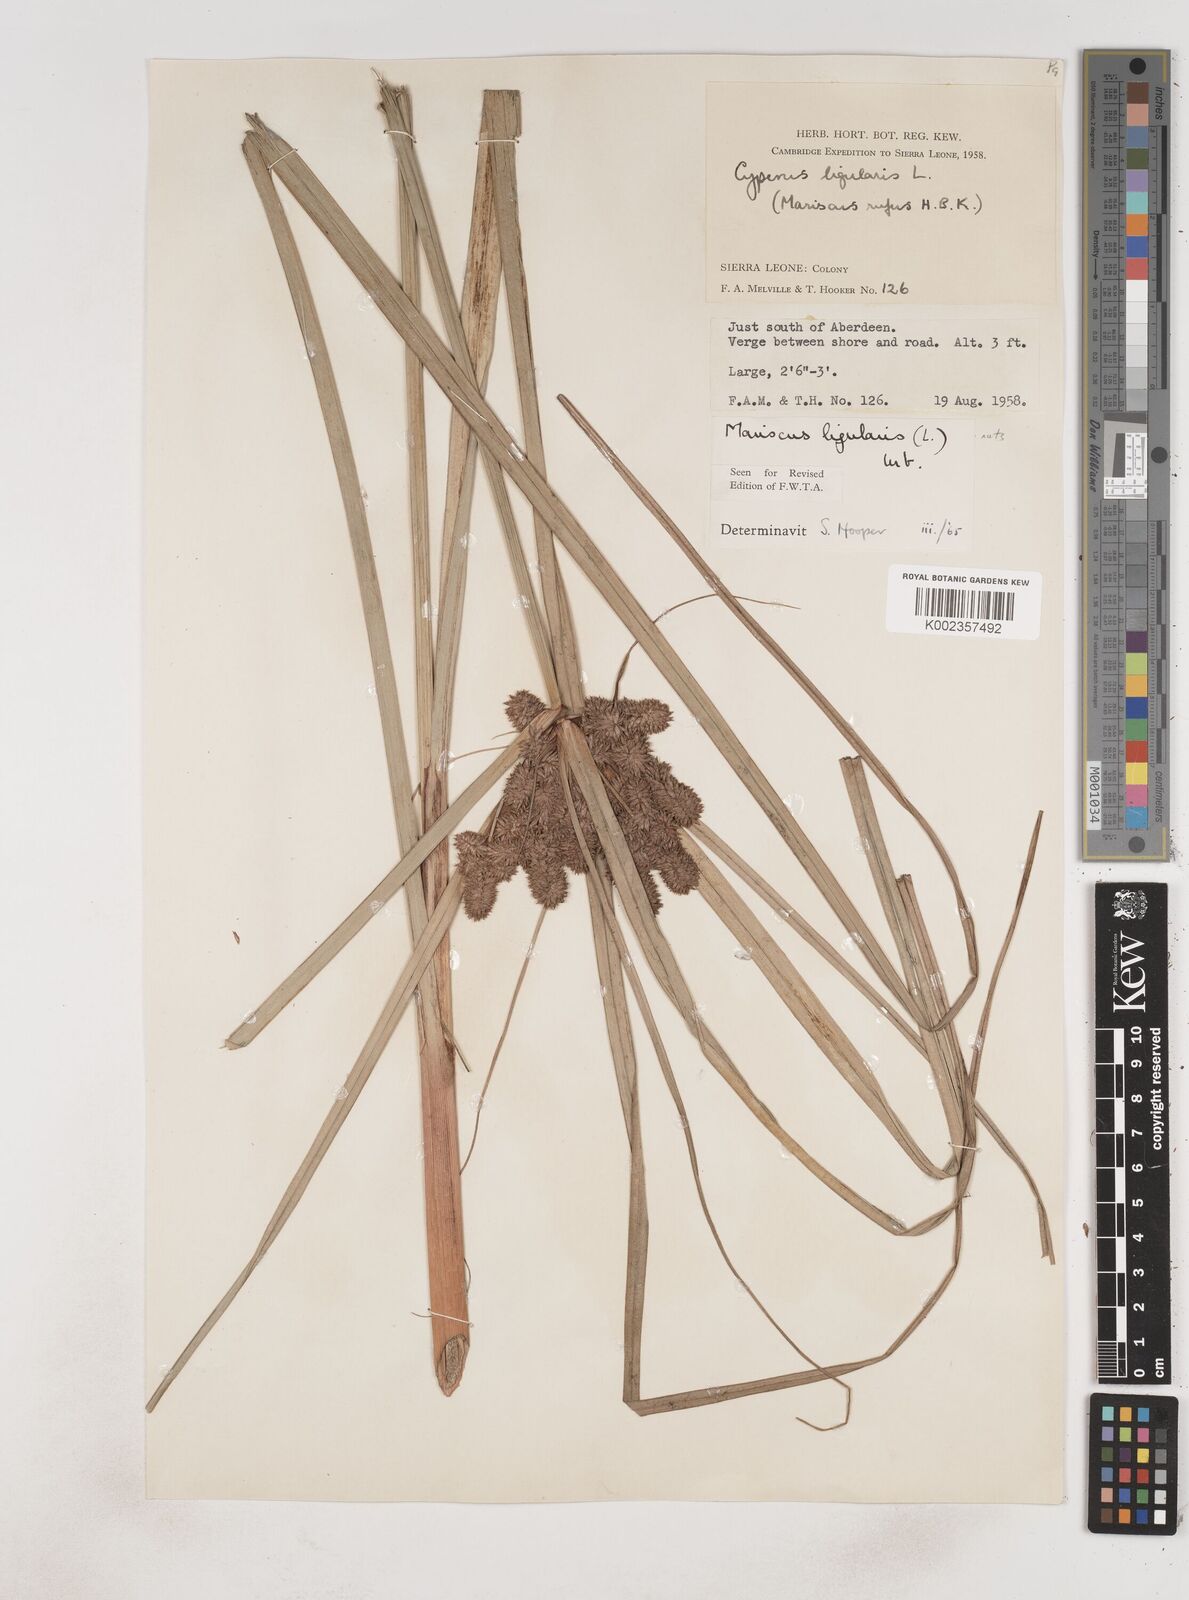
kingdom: Plantae
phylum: Tracheophyta
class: Liliopsida
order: Poales
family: Cyperaceae
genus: Cyperus
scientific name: Cyperus ligularis
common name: Swamp flat sedge
